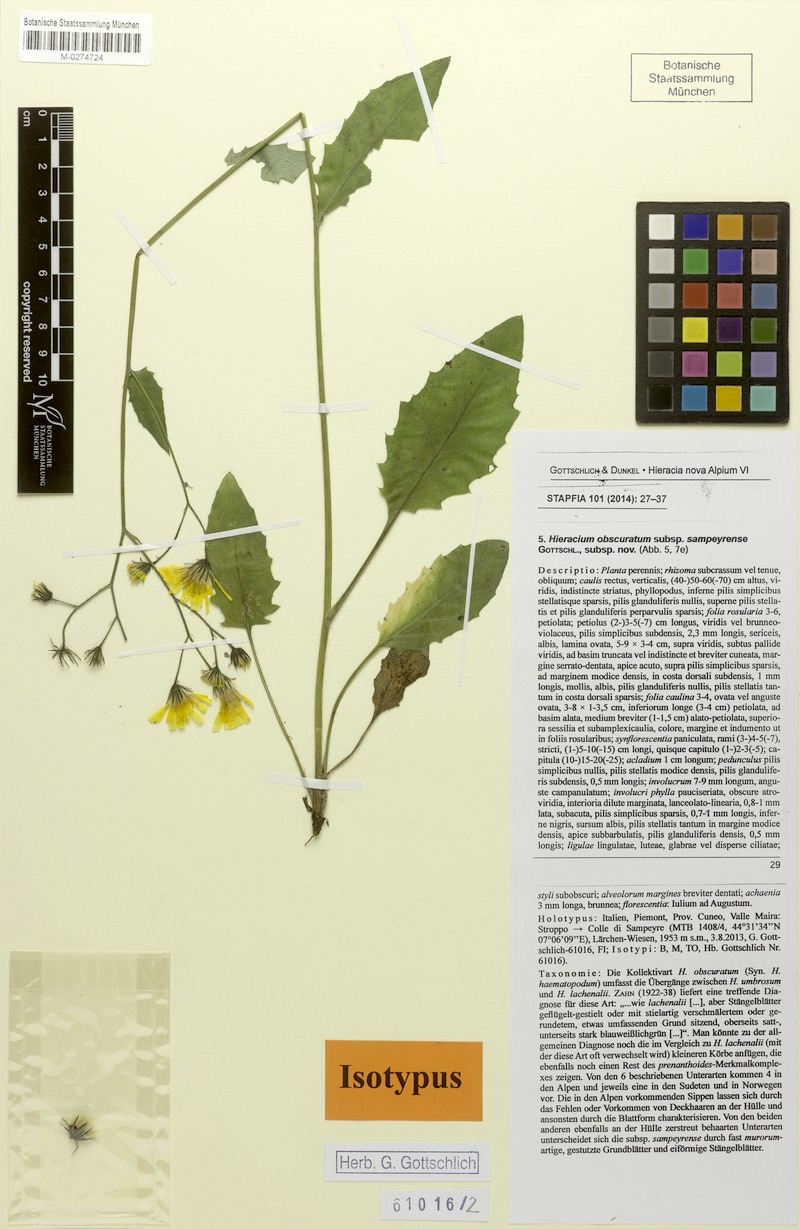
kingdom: Plantae
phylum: Tracheophyta
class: Magnoliopsida
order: Asterales
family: Asteraceae
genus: Hieracium
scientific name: Hieracium obscuratum
